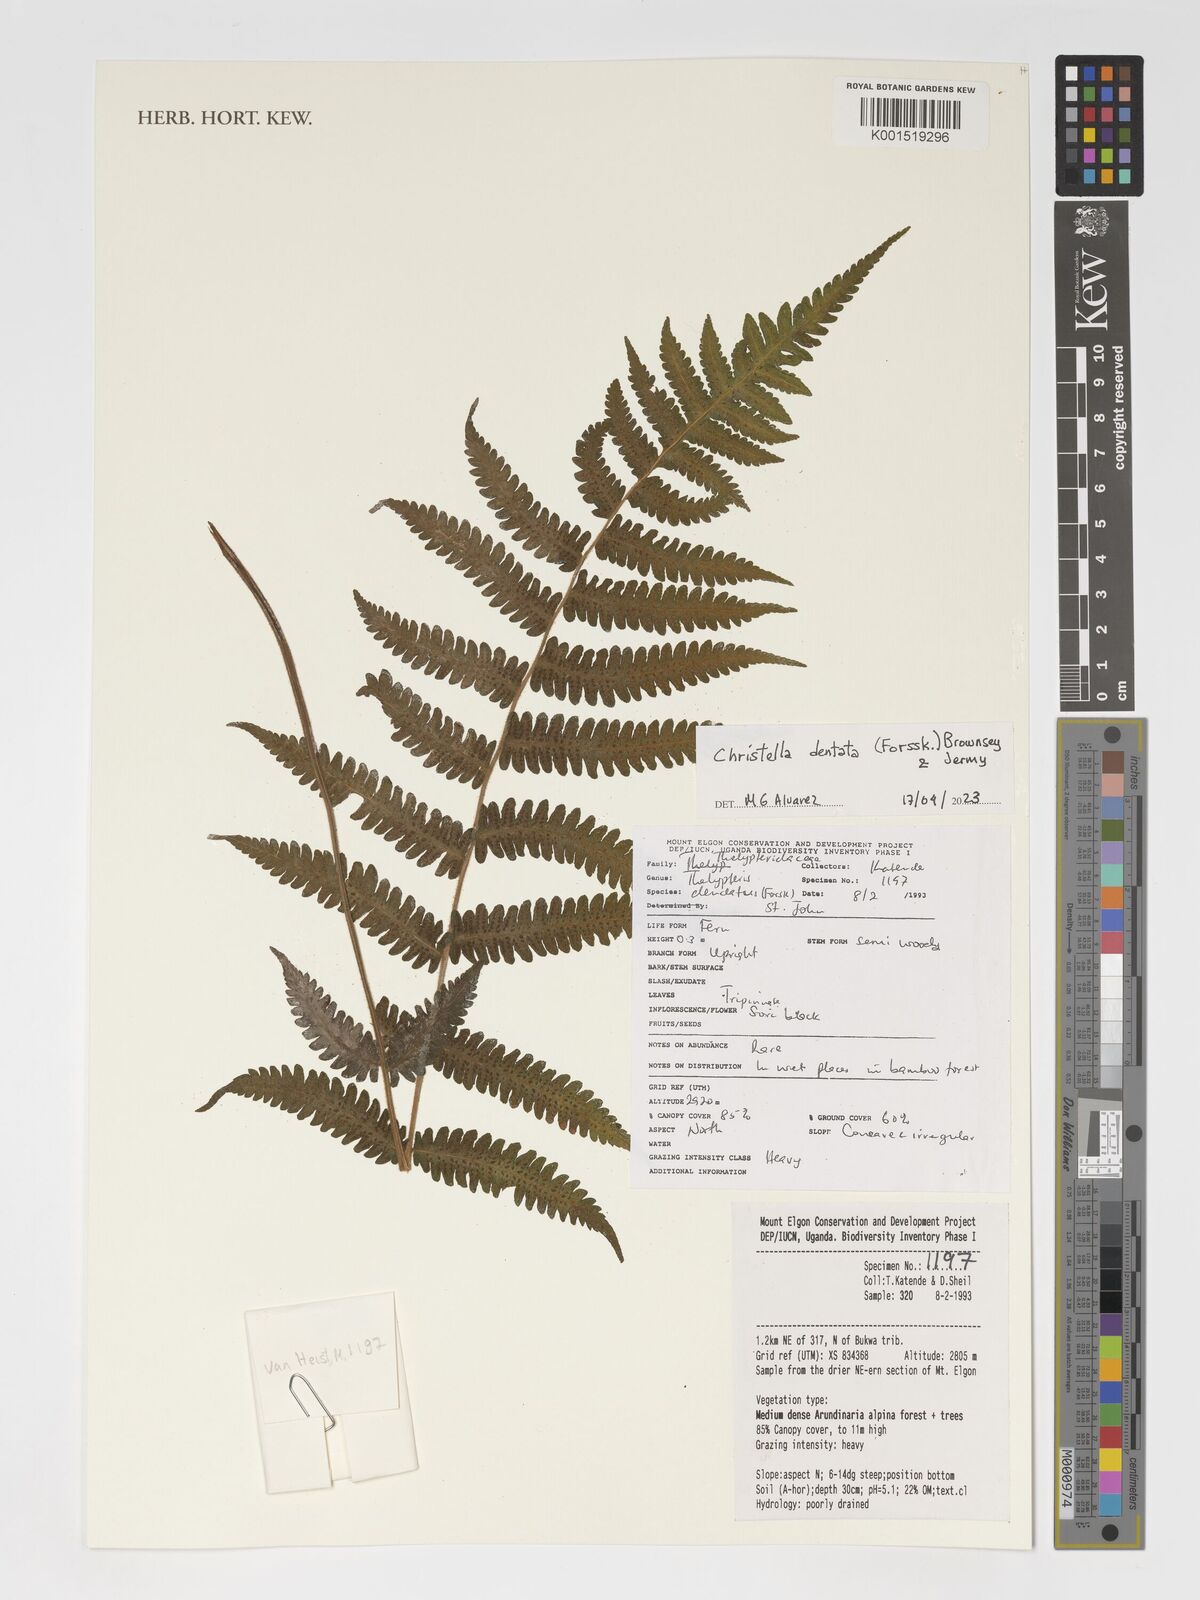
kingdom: Plantae
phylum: Tracheophyta
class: Polypodiopsida
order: Polypodiales
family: Thelypteridaceae
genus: Christella
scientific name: Christella dentata
